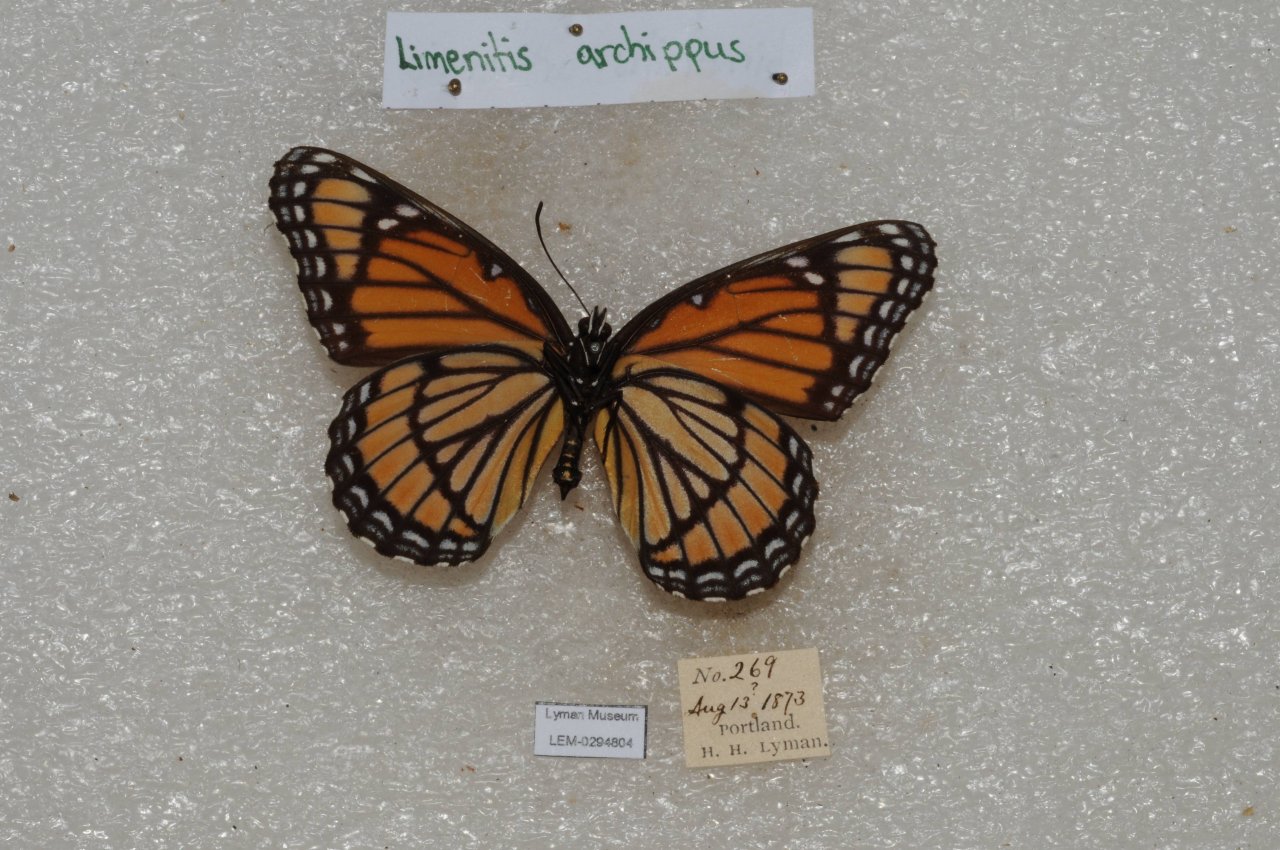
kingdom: Animalia
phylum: Arthropoda
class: Insecta
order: Lepidoptera
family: Nymphalidae
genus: Limenitis
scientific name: Limenitis archippus
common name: Viceroy
